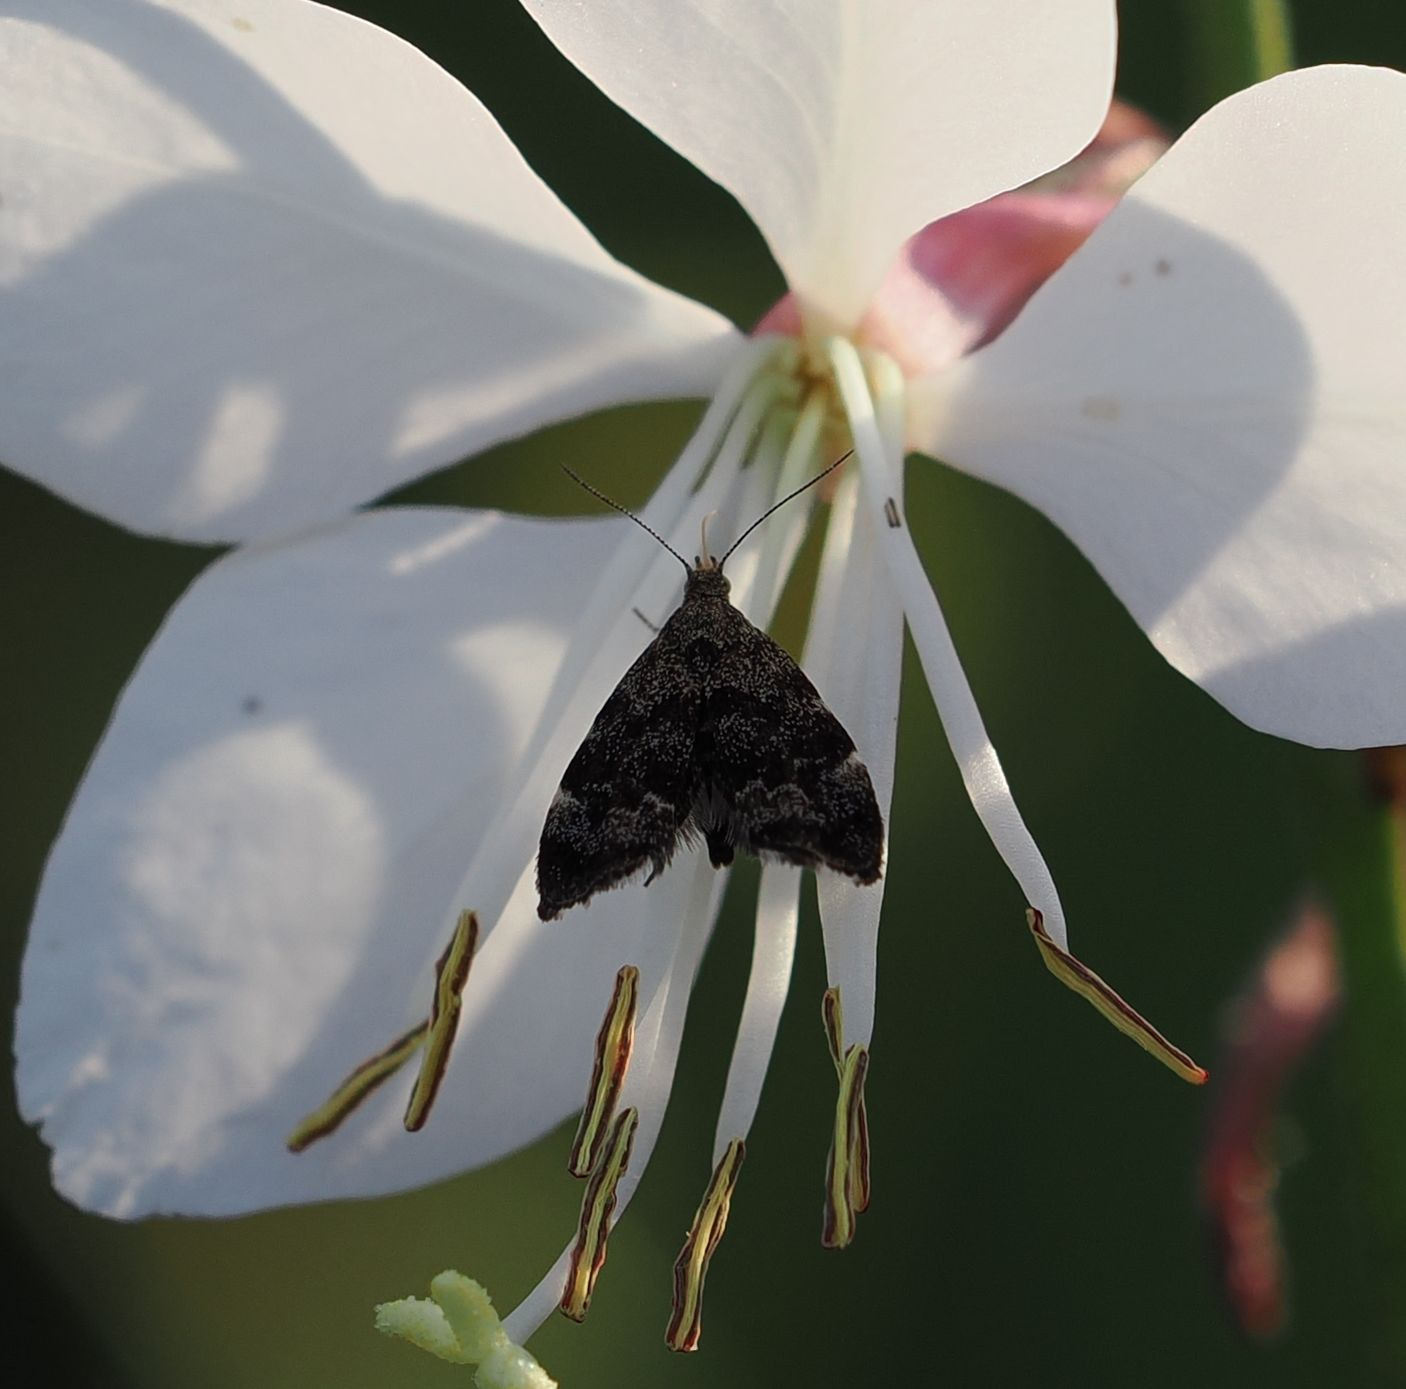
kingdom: Animalia
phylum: Arthropoda
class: Insecta
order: Lepidoptera
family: Choreutidae
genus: Anthophila
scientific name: Anthophila fabriciana
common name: Bredvinget nældevikler
